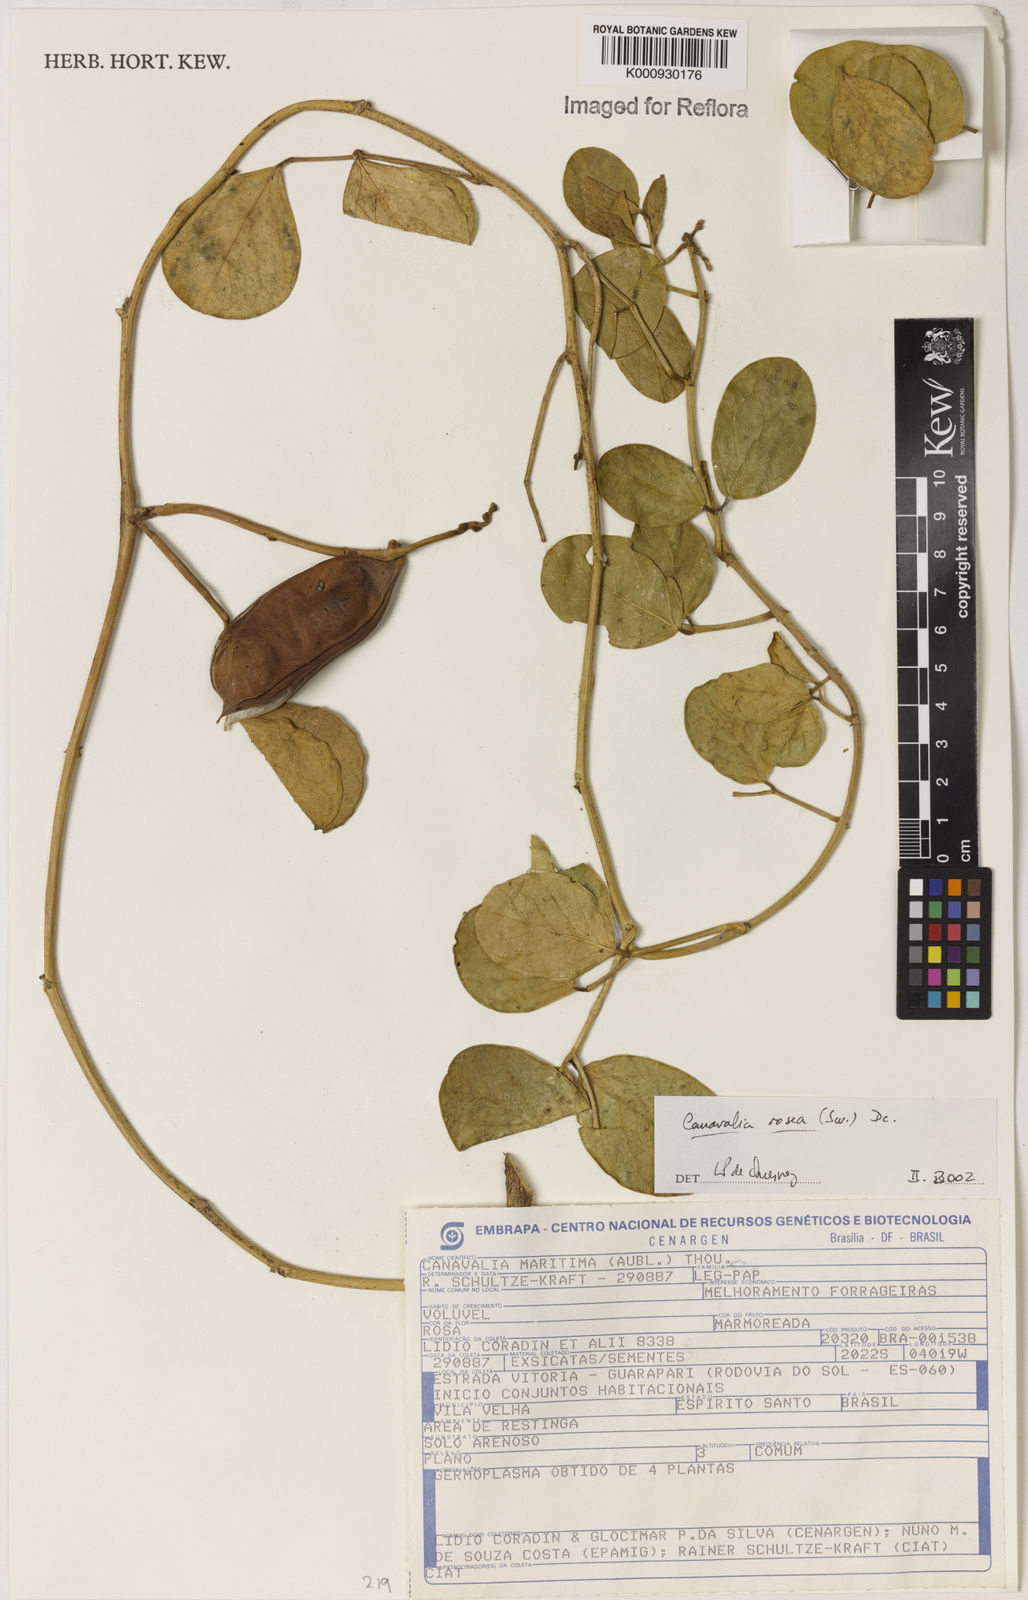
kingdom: Plantae
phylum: Tracheophyta
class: Magnoliopsida
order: Fabales
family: Fabaceae
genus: Canavalia
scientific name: Canavalia rosea
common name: Beach-bean
